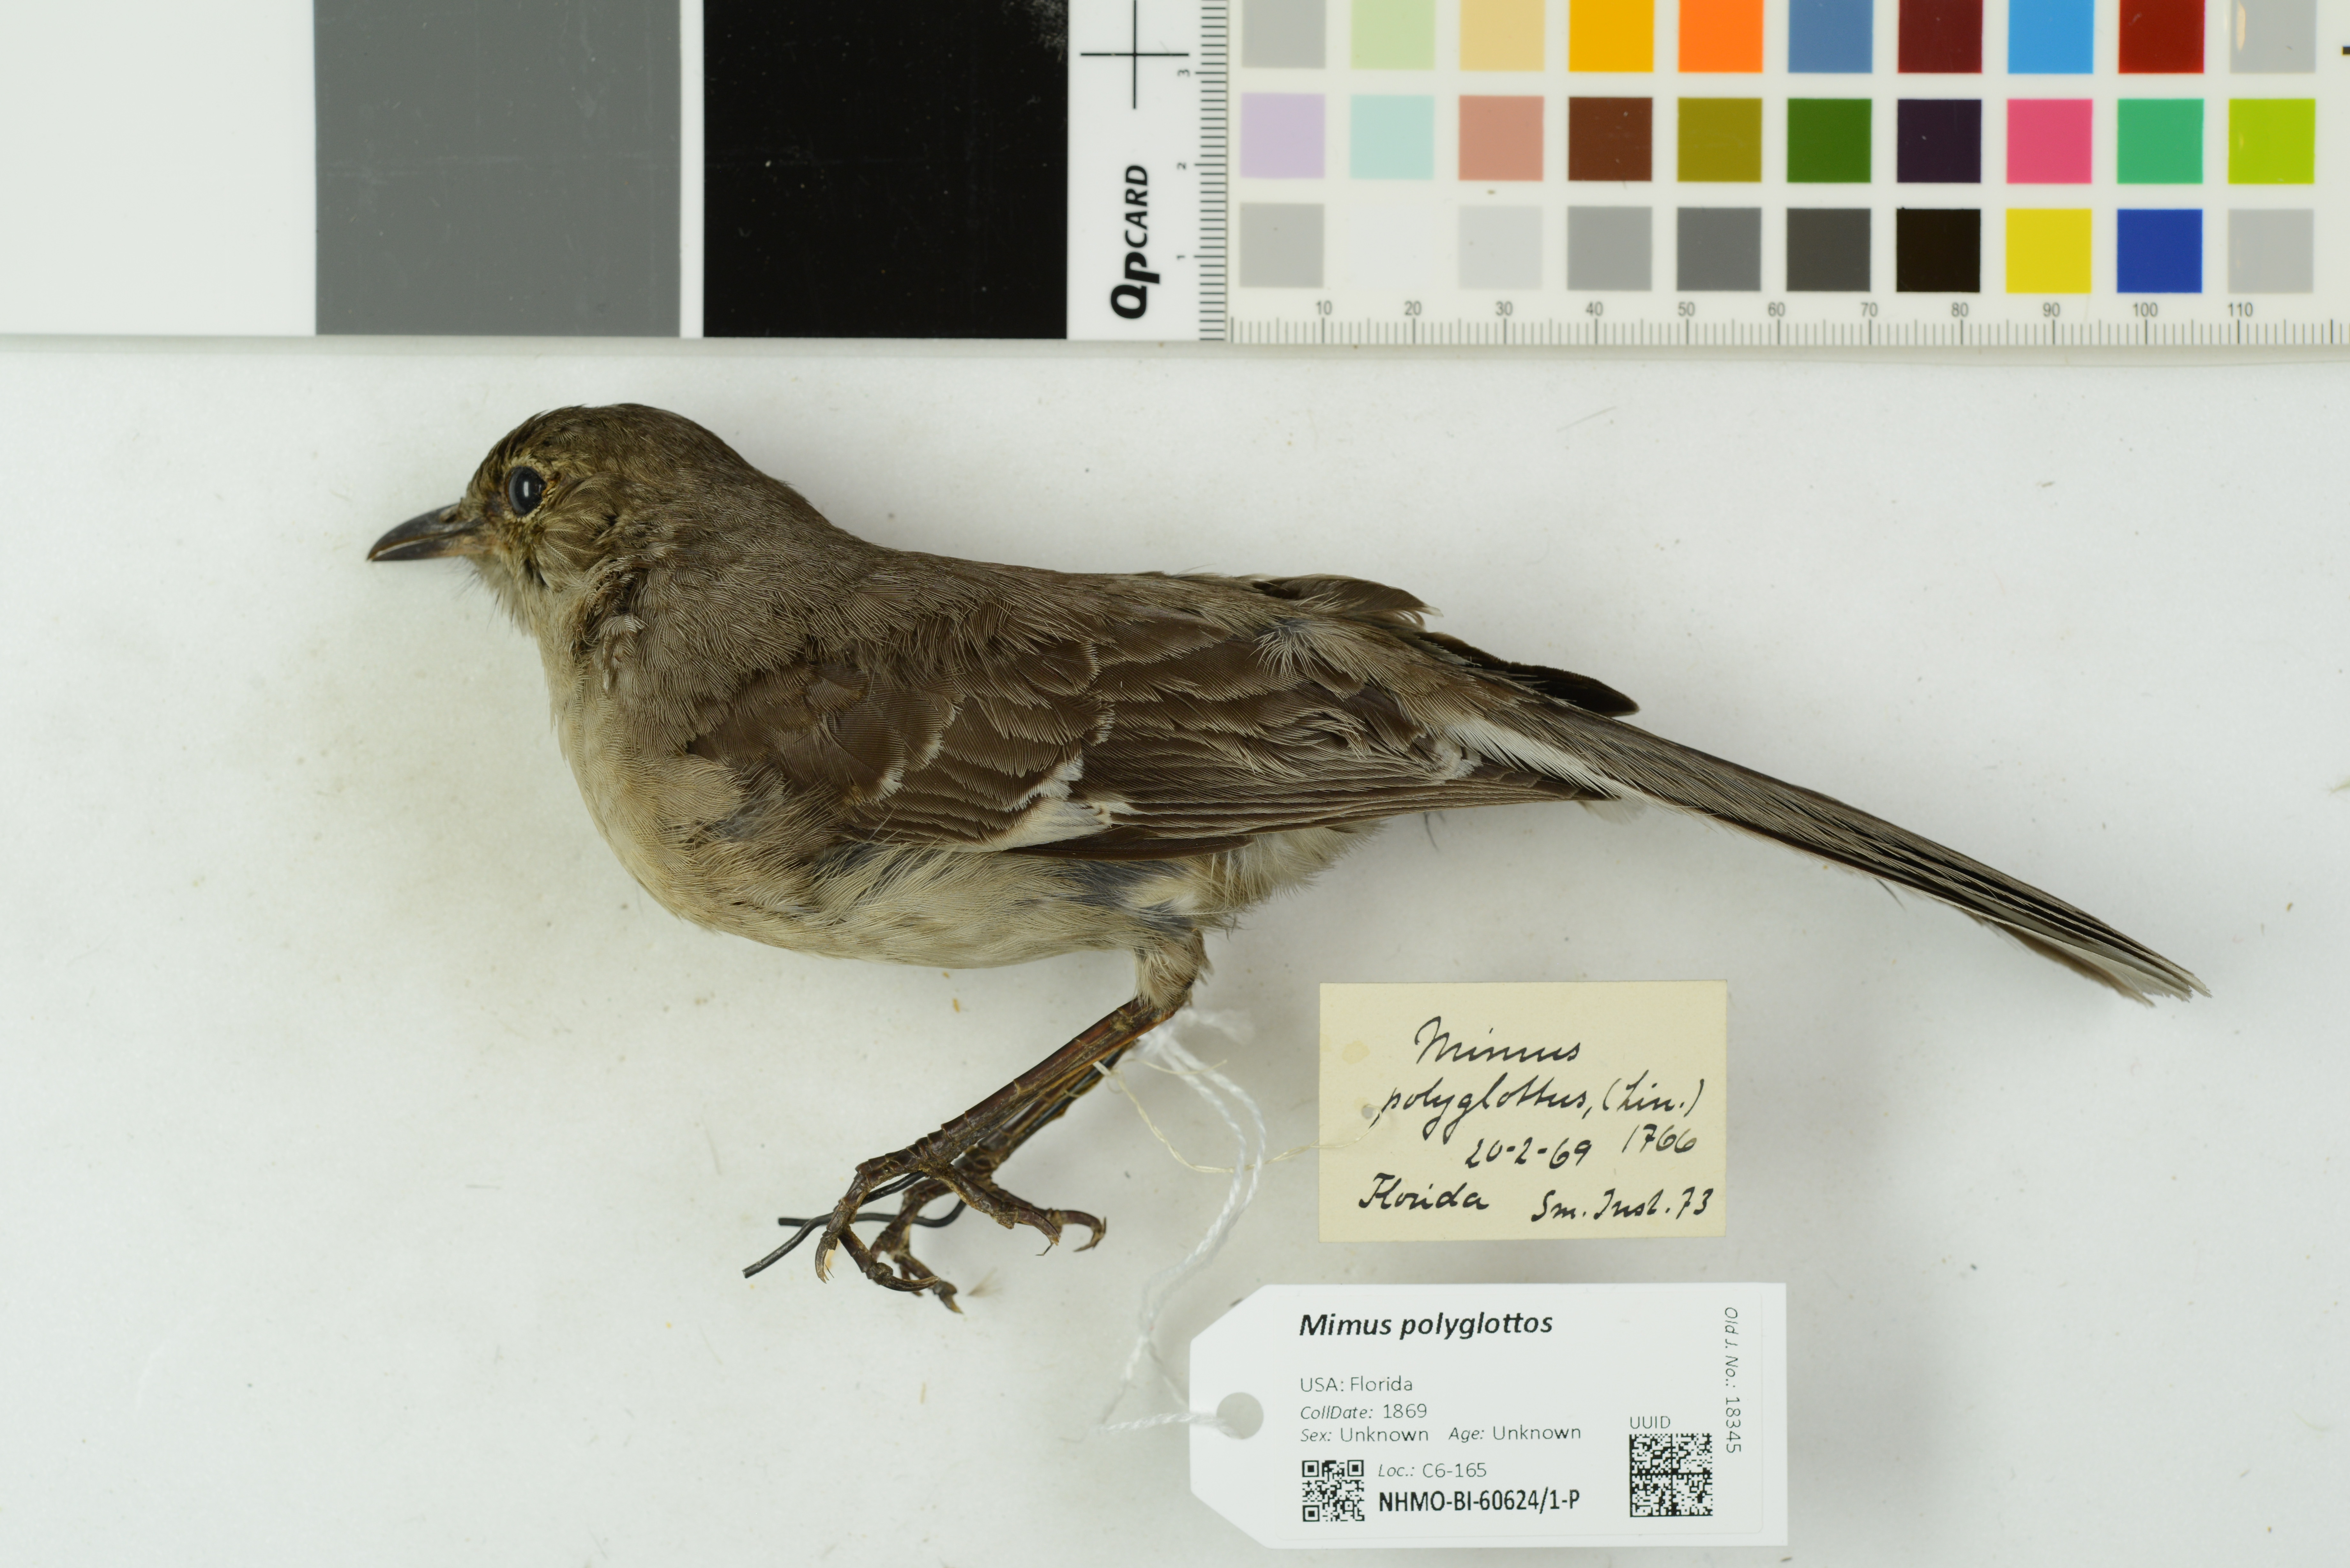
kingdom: Animalia
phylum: Chordata
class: Aves
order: Passeriformes
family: Mimidae
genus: Mimus
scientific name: Mimus polyglottos
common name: Northern mockingbird
